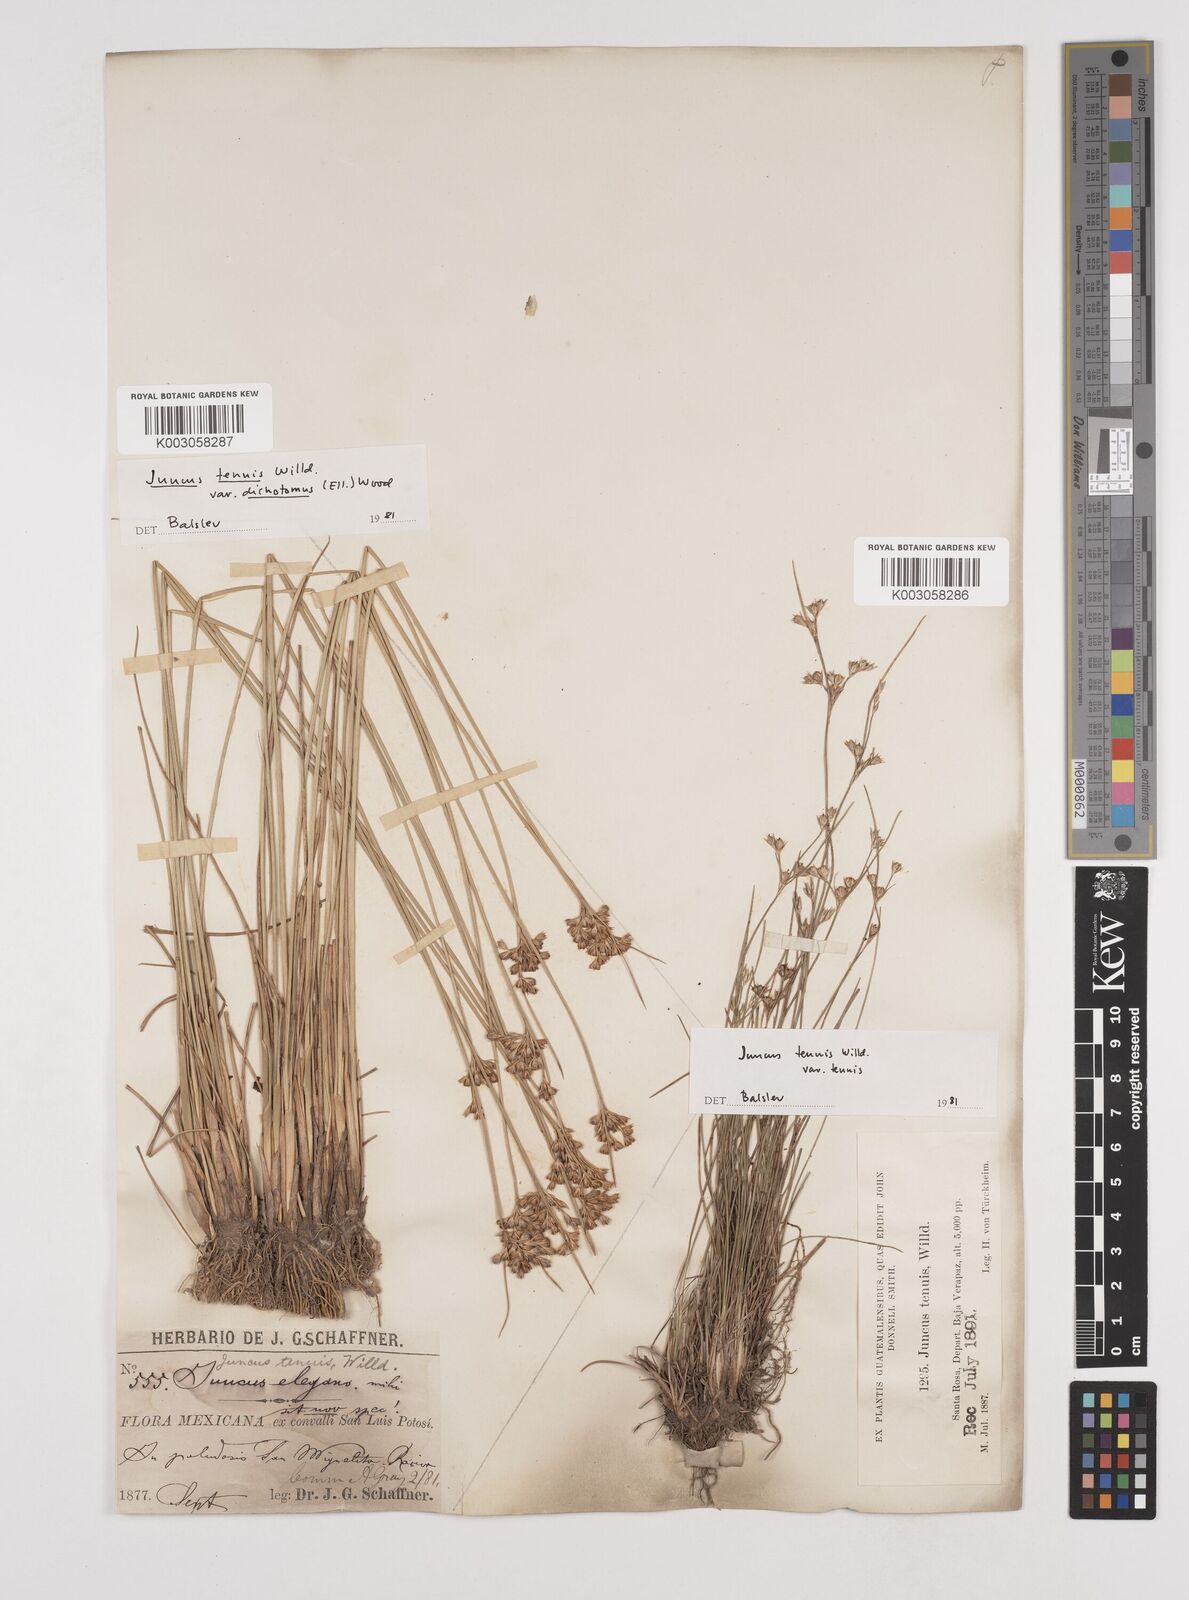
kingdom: Plantae
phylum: Tracheophyta
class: Liliopsida
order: Poales
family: Juncaceae
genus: Juncus
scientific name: Juncus tenuis
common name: Slender rush
